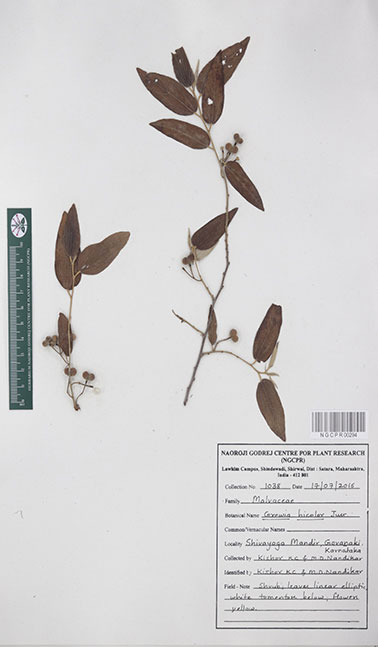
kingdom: Plantae
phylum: Tracheophyta
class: Magnoliopsida
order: Malvales
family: Malvaceae
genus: Grewia
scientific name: Grewia bicolor
